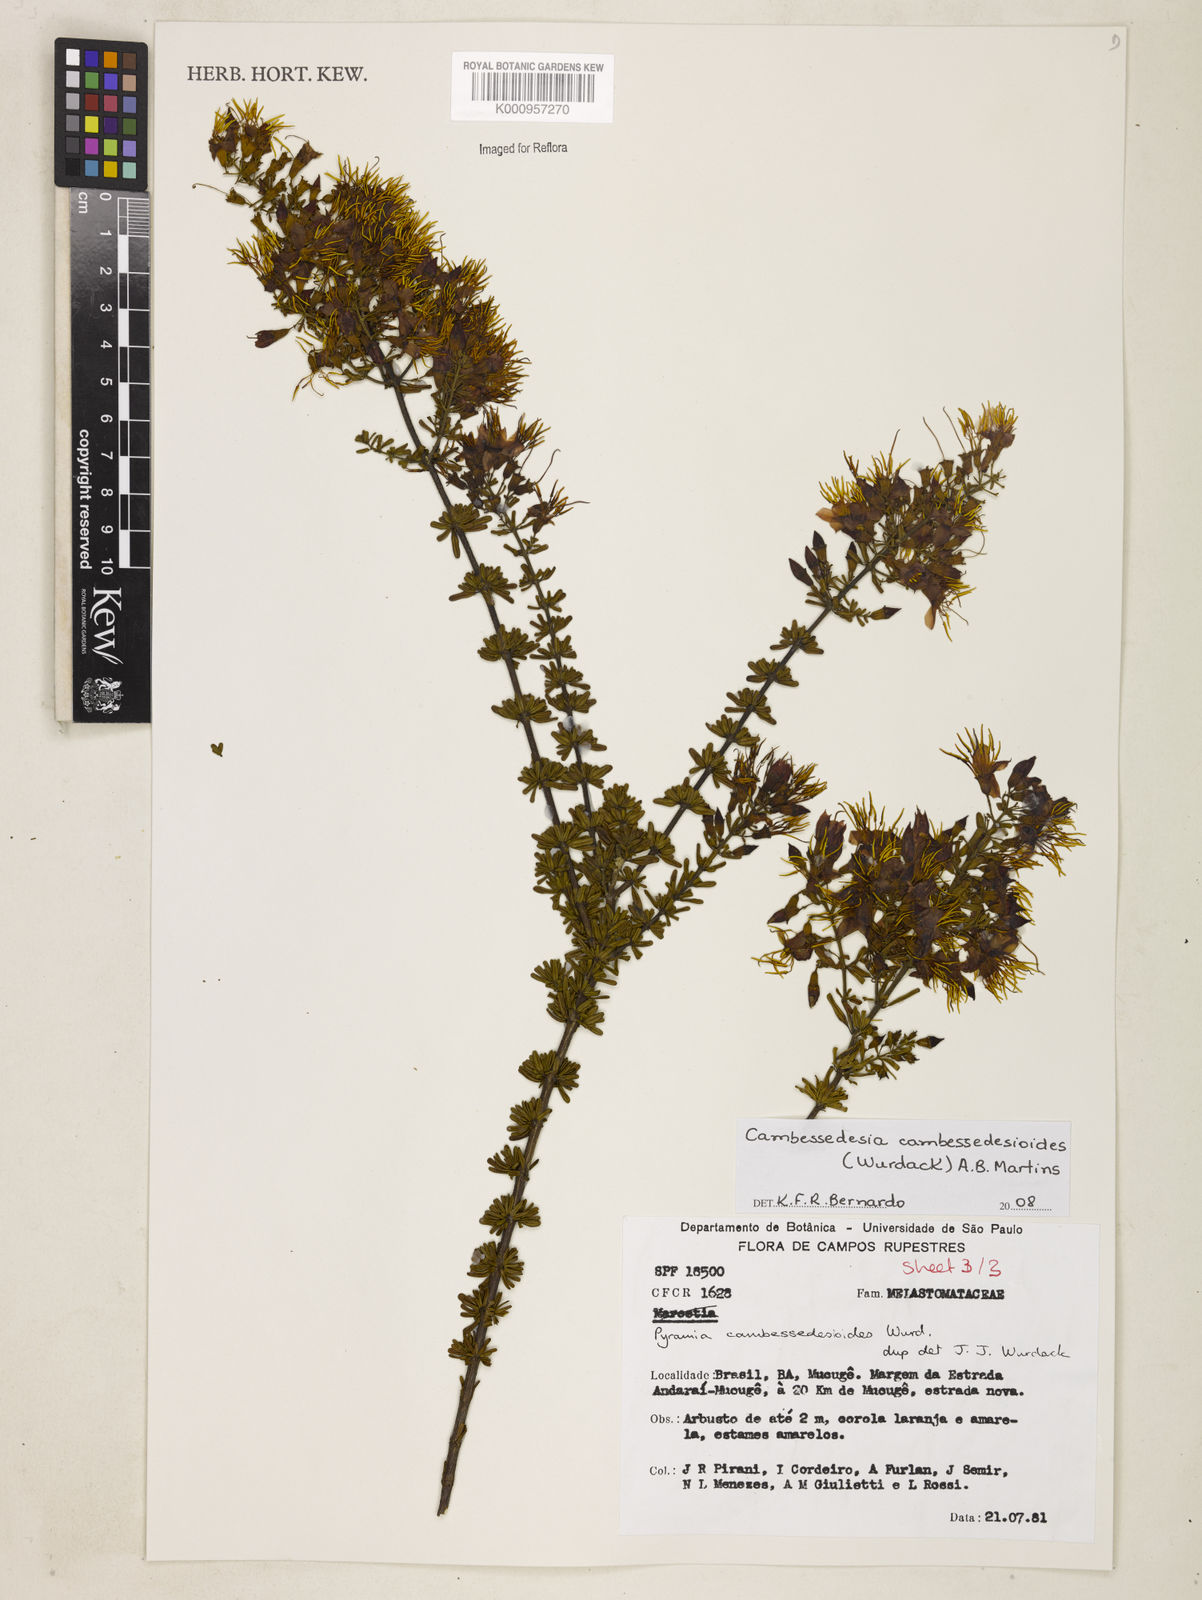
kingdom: Plantae
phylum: Tracheophyta
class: Magnoliopsida
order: Myrtales
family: Melastomataceae
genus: Cambessedesia
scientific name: Cambessedesia cambessedesioides
